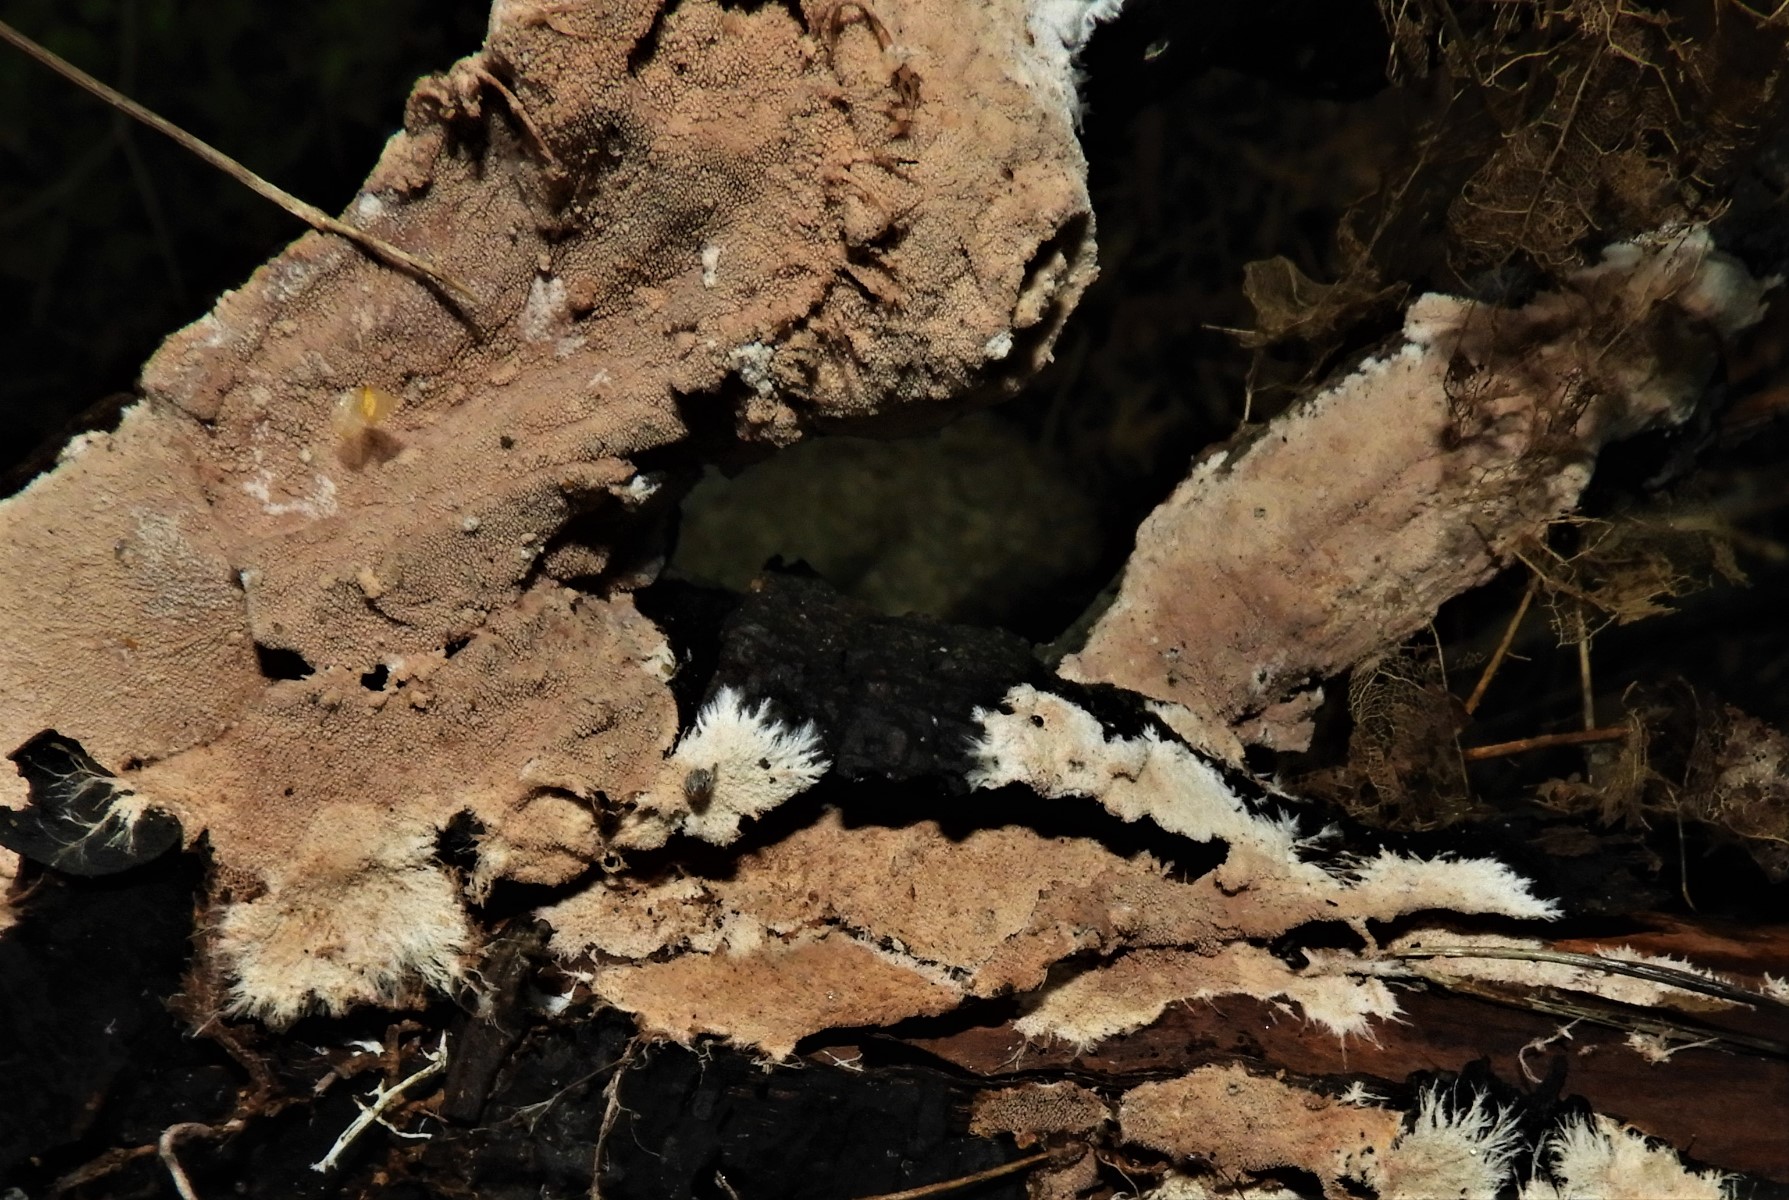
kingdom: Fungi
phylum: Basidiomycota
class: Agaricomycetes
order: Polyporales
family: Steccherinaceae
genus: Steccherinum
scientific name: Steccherinum fimbriatum
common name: trådet skønpig
